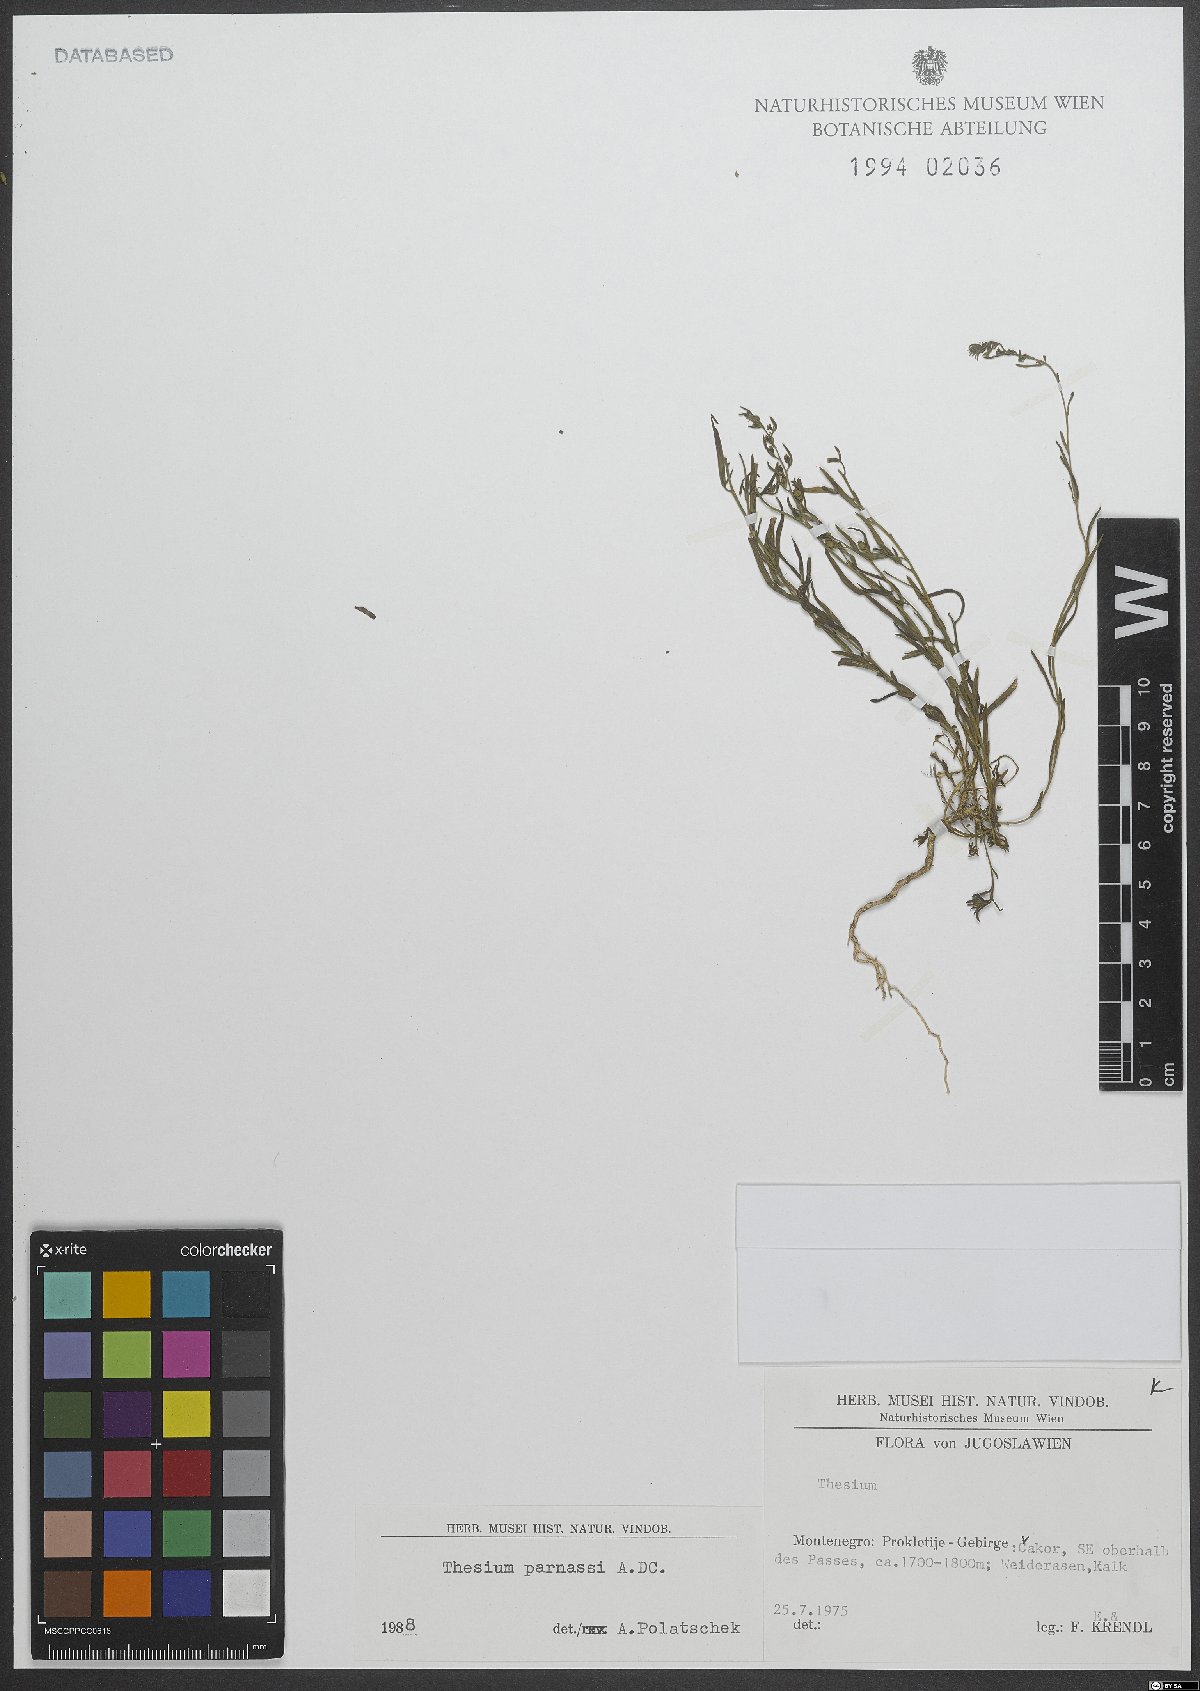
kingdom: Plantae
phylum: Tracheophyta
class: Magnoliopsida
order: Santalales
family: Thesiaceae
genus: Thesium
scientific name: Thesium parnassi
